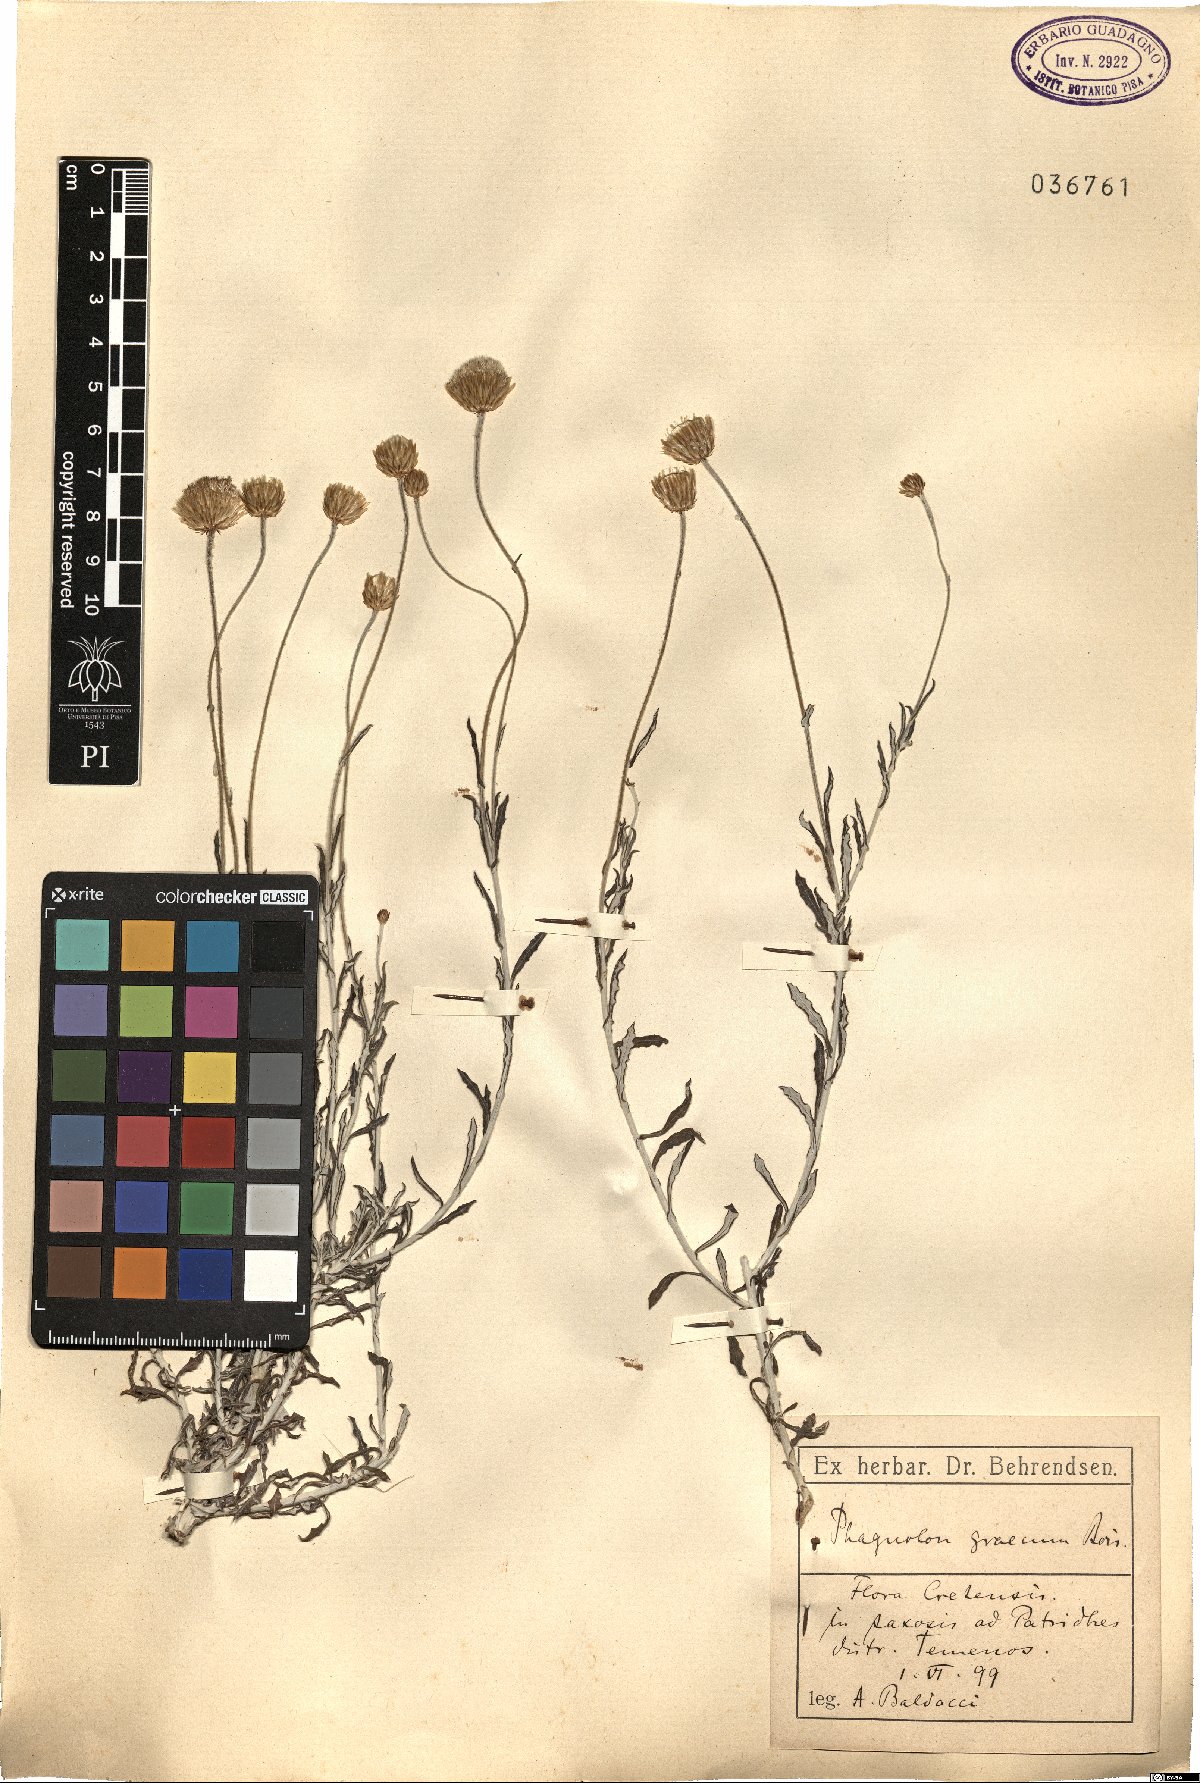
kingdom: Plantae
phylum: Tracheophyta
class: Magnoliopsida
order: Asterales
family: Asteraceae
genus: Phagnalon
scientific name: Phagnalon graecum
